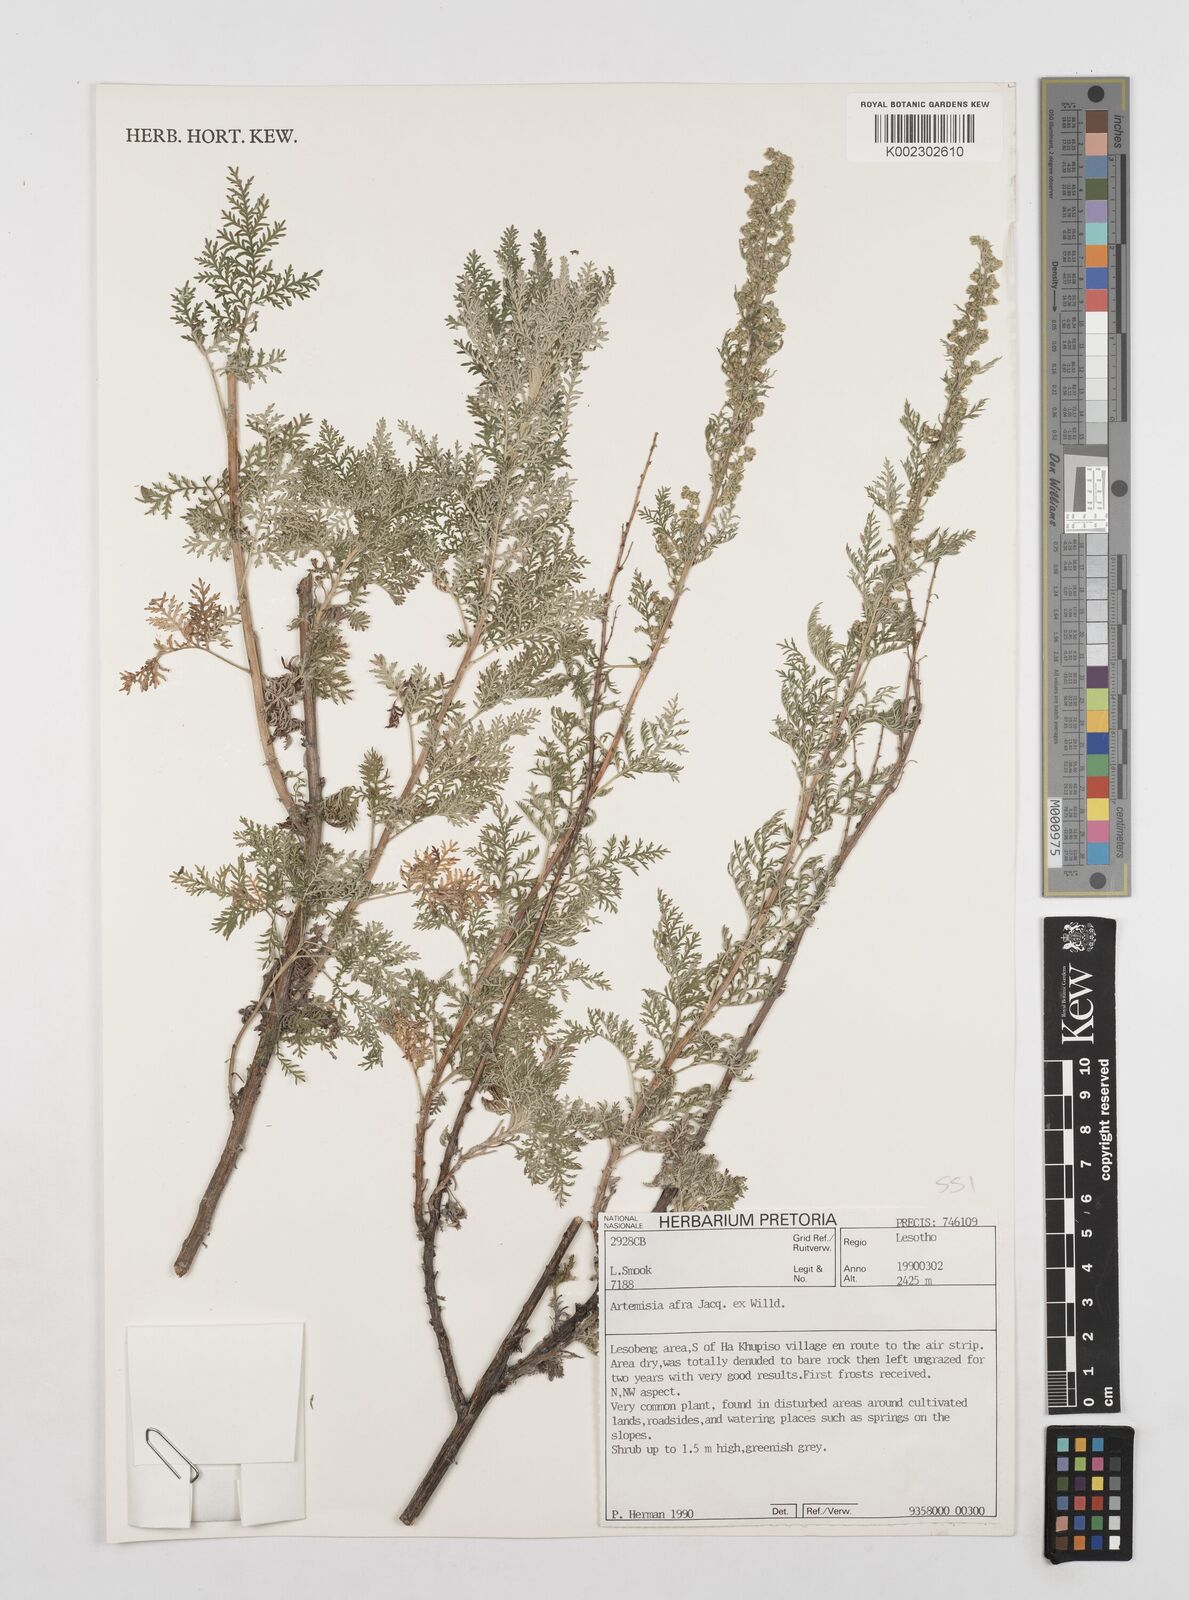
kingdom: Plantae
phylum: Tracheophyta
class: Magnoliopsida
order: Asterales
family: Asteraceae
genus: Artemisia
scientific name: Artemisia afra
